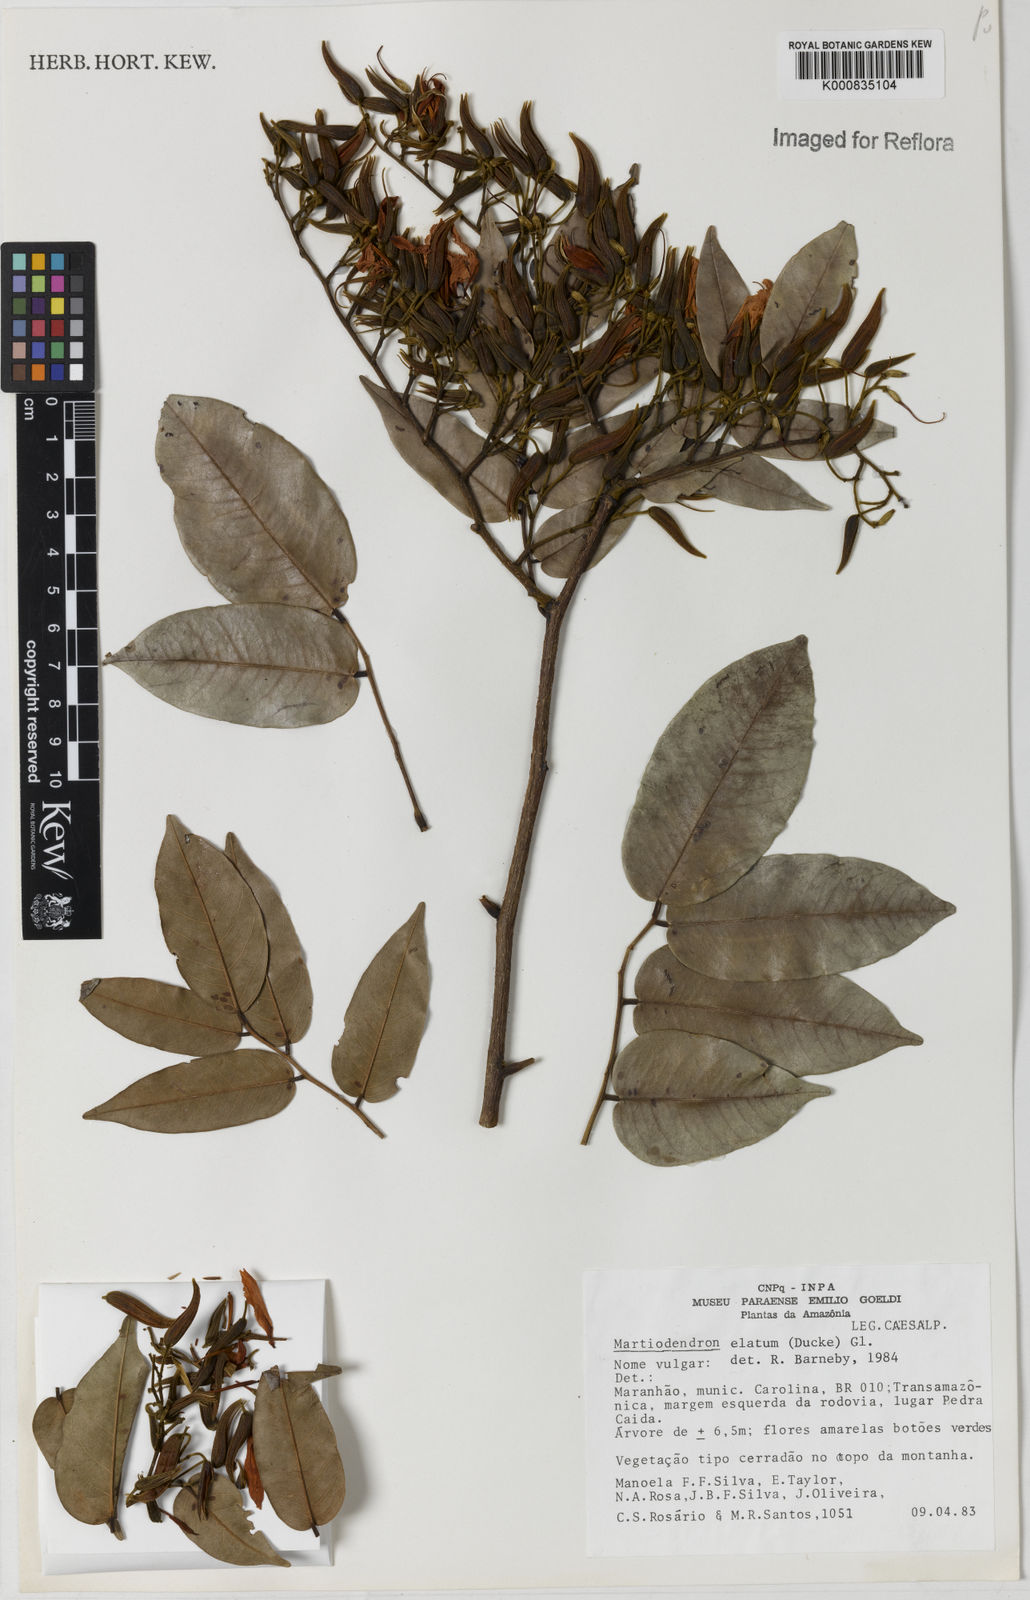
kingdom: Plantae
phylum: Tracheophyta
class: Magnoliopsida
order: Fabales
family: Fabaceae
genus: Martiodendron
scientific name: Martiodendron elatum
